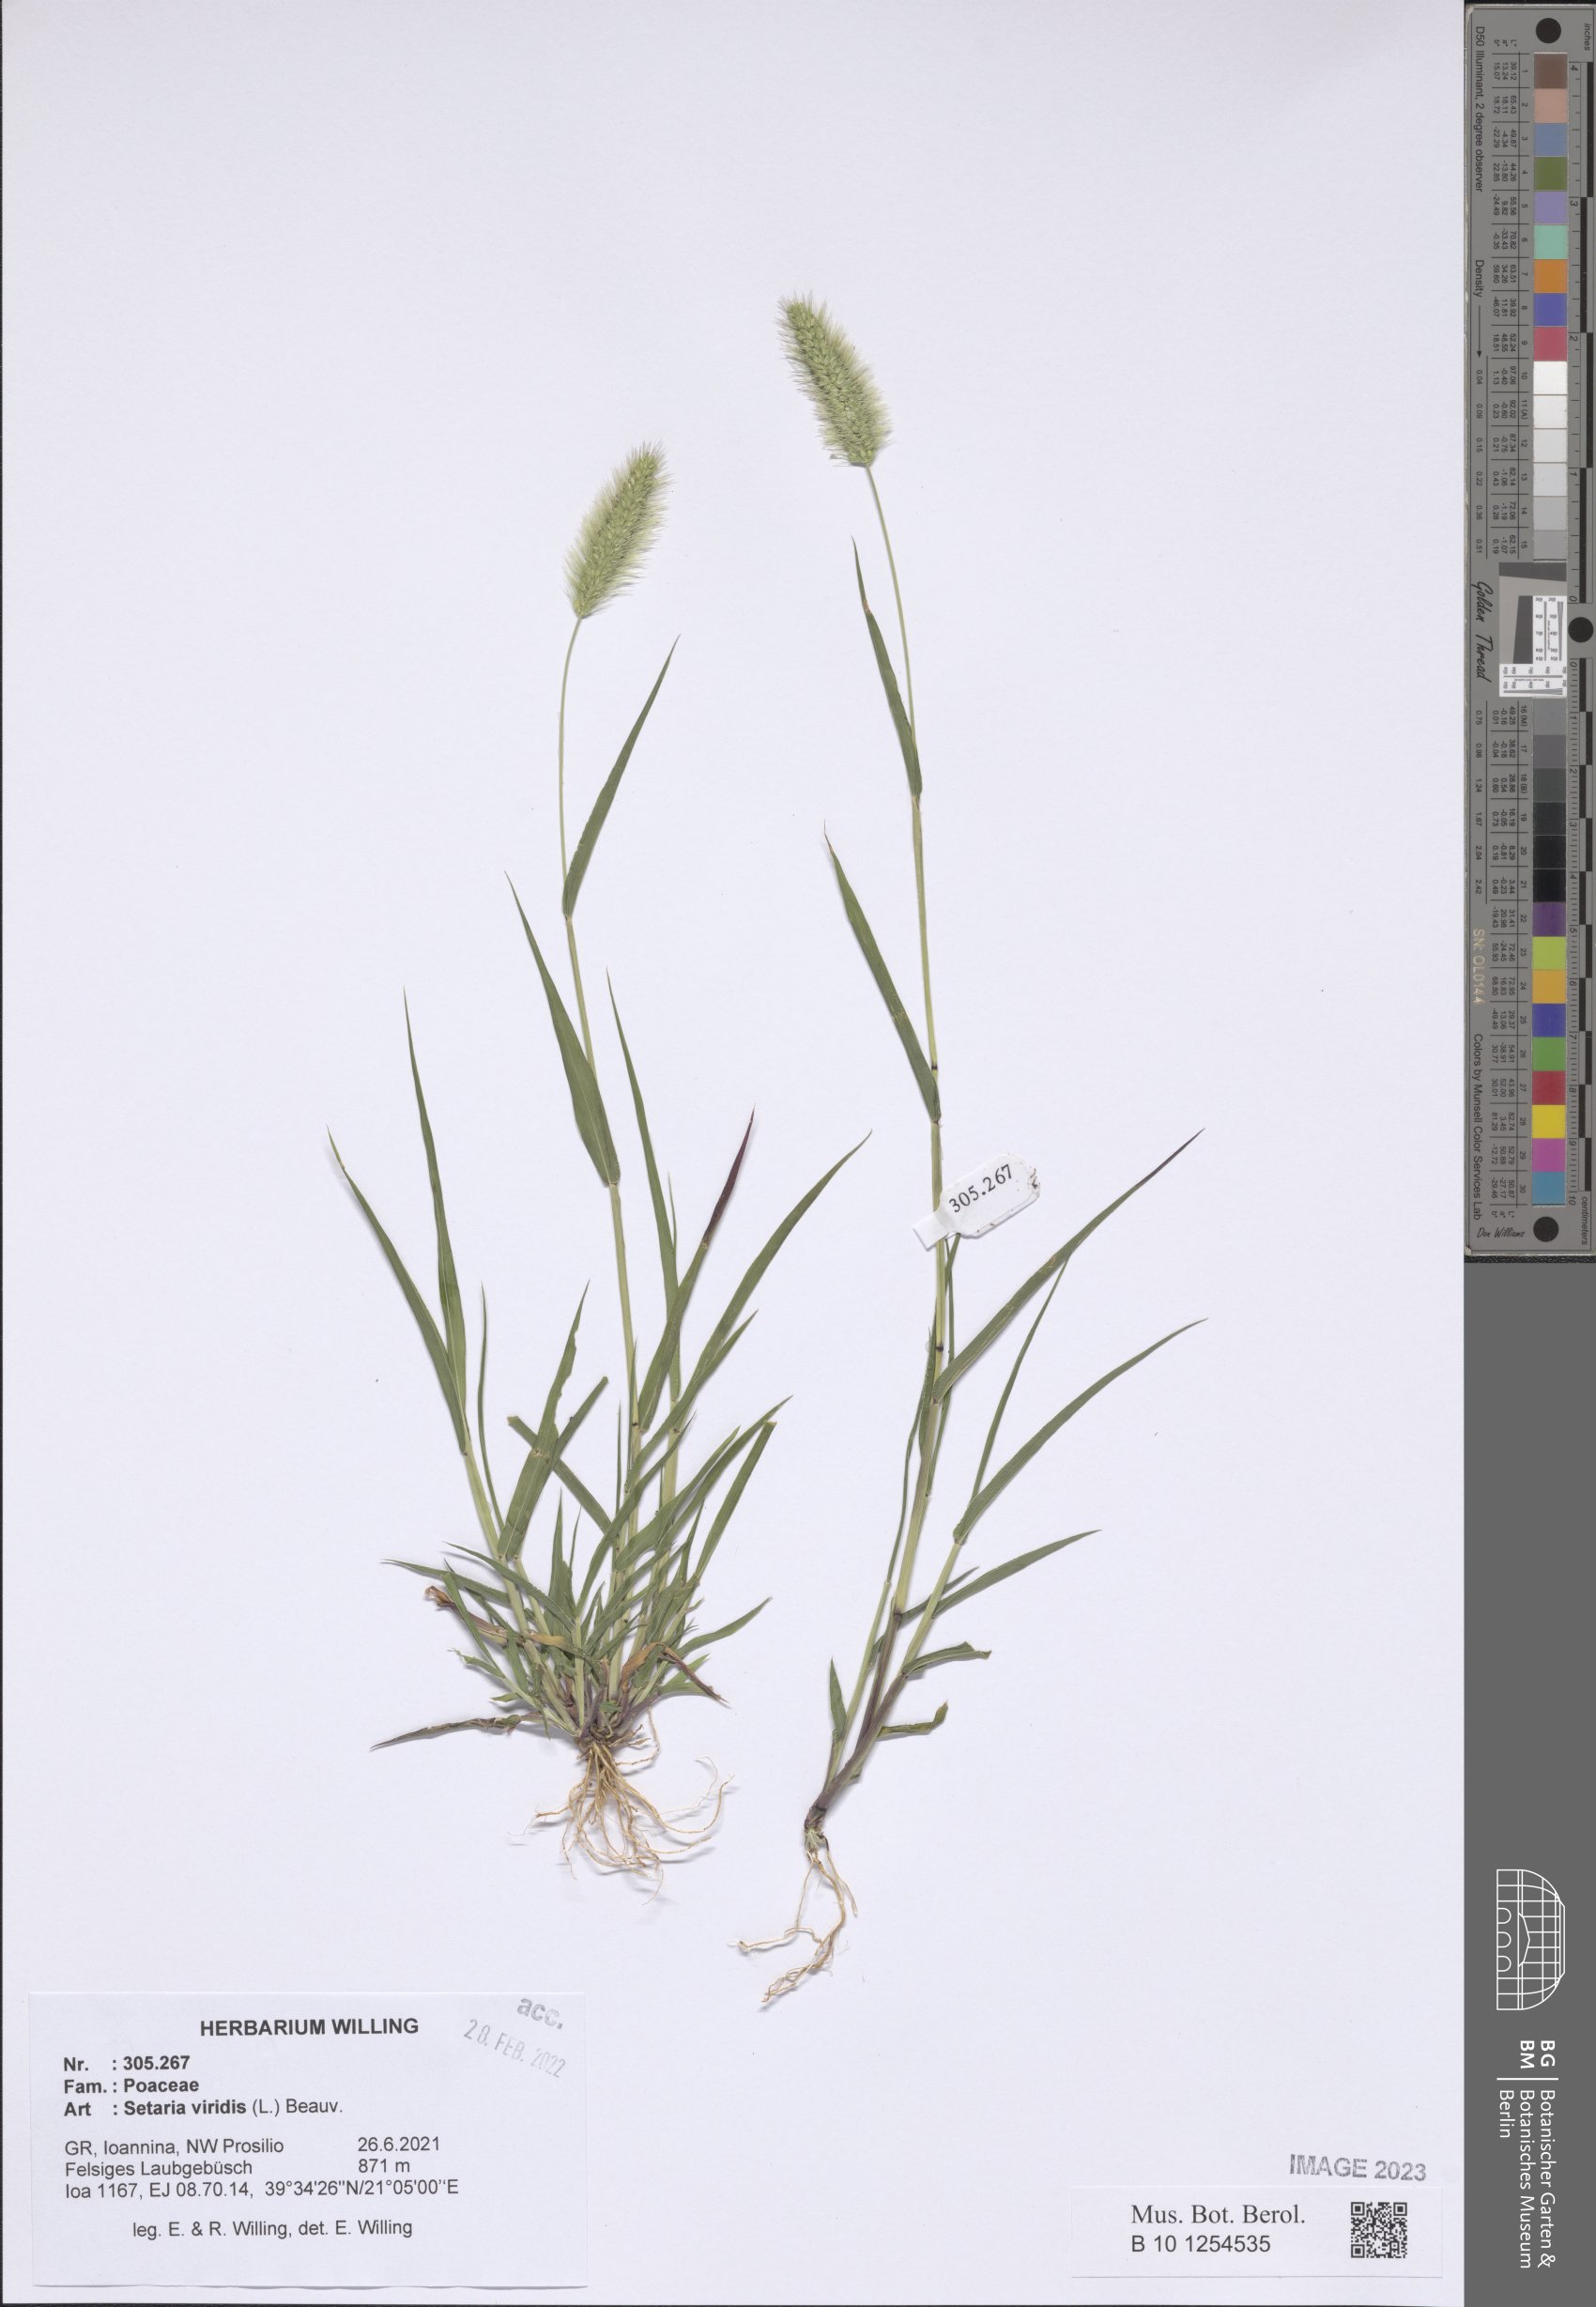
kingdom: Plantae
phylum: Tracheophyta
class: Liliopsida
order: Poales
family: Poaceae
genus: Setaria
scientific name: Setaria viridis
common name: Green bristlegrass
